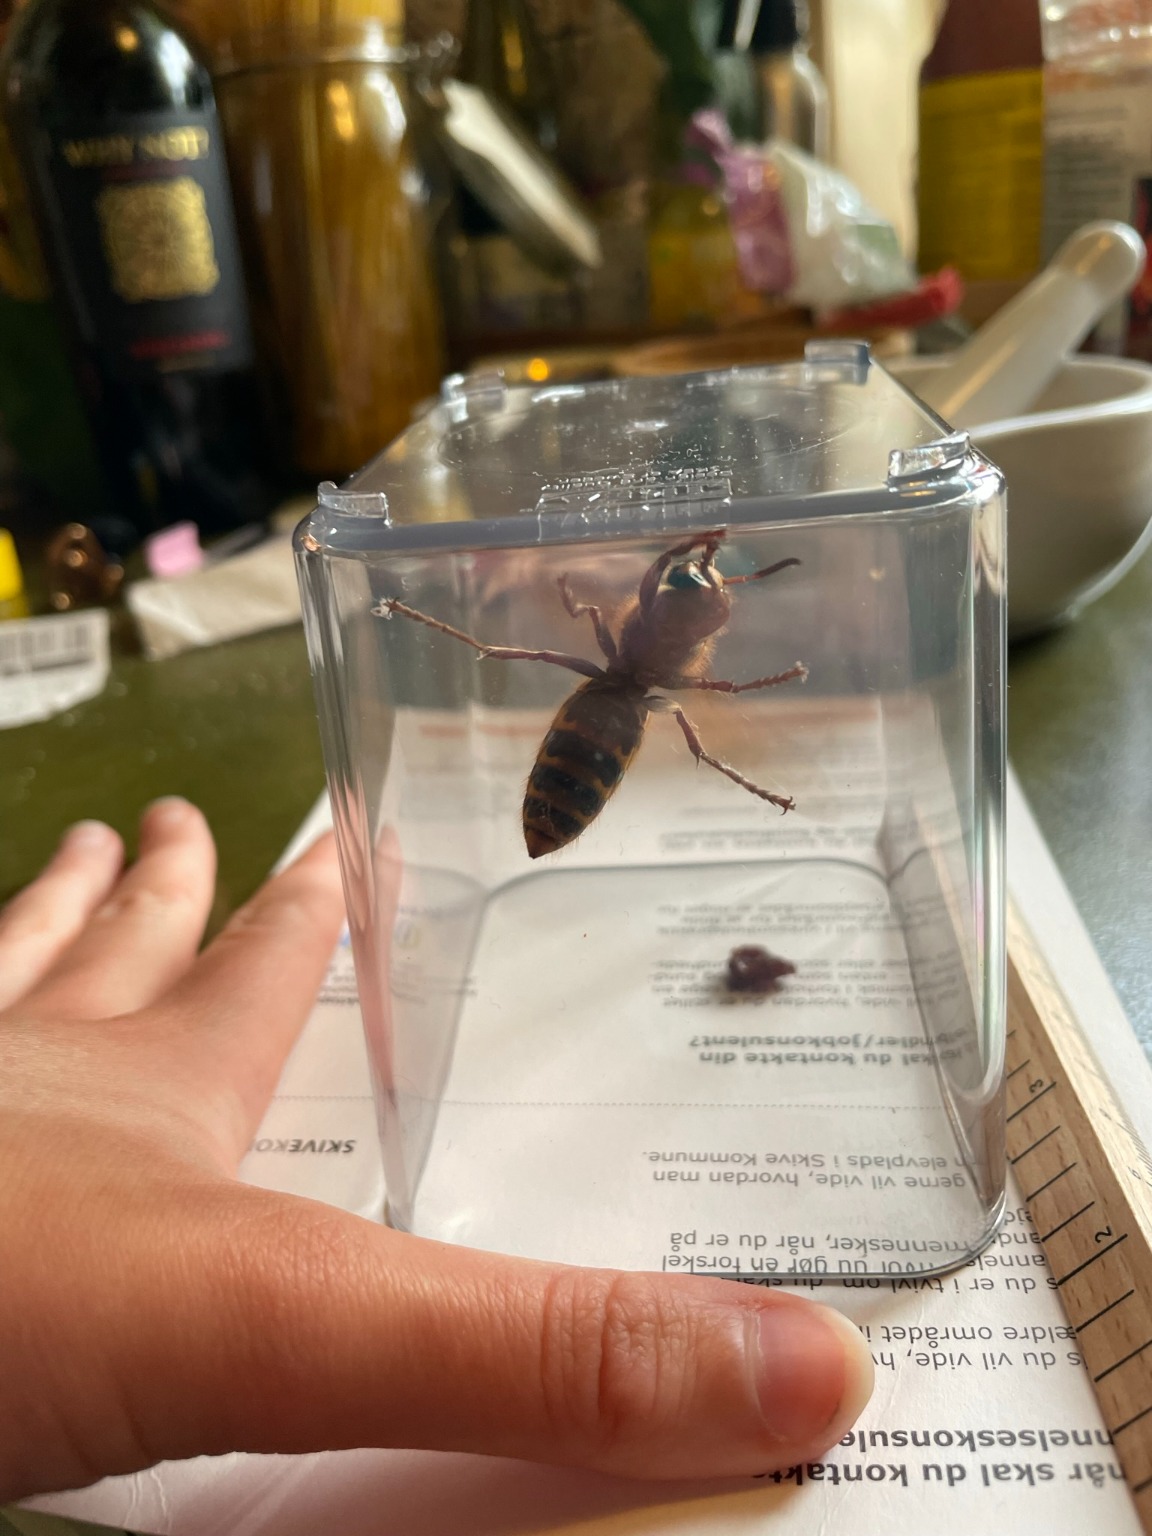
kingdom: Animalia
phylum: Arthropoda
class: Insecta
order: Hymenoptera
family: Vespidae
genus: Vespa
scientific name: Vespa crabro
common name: Stor gedehams
